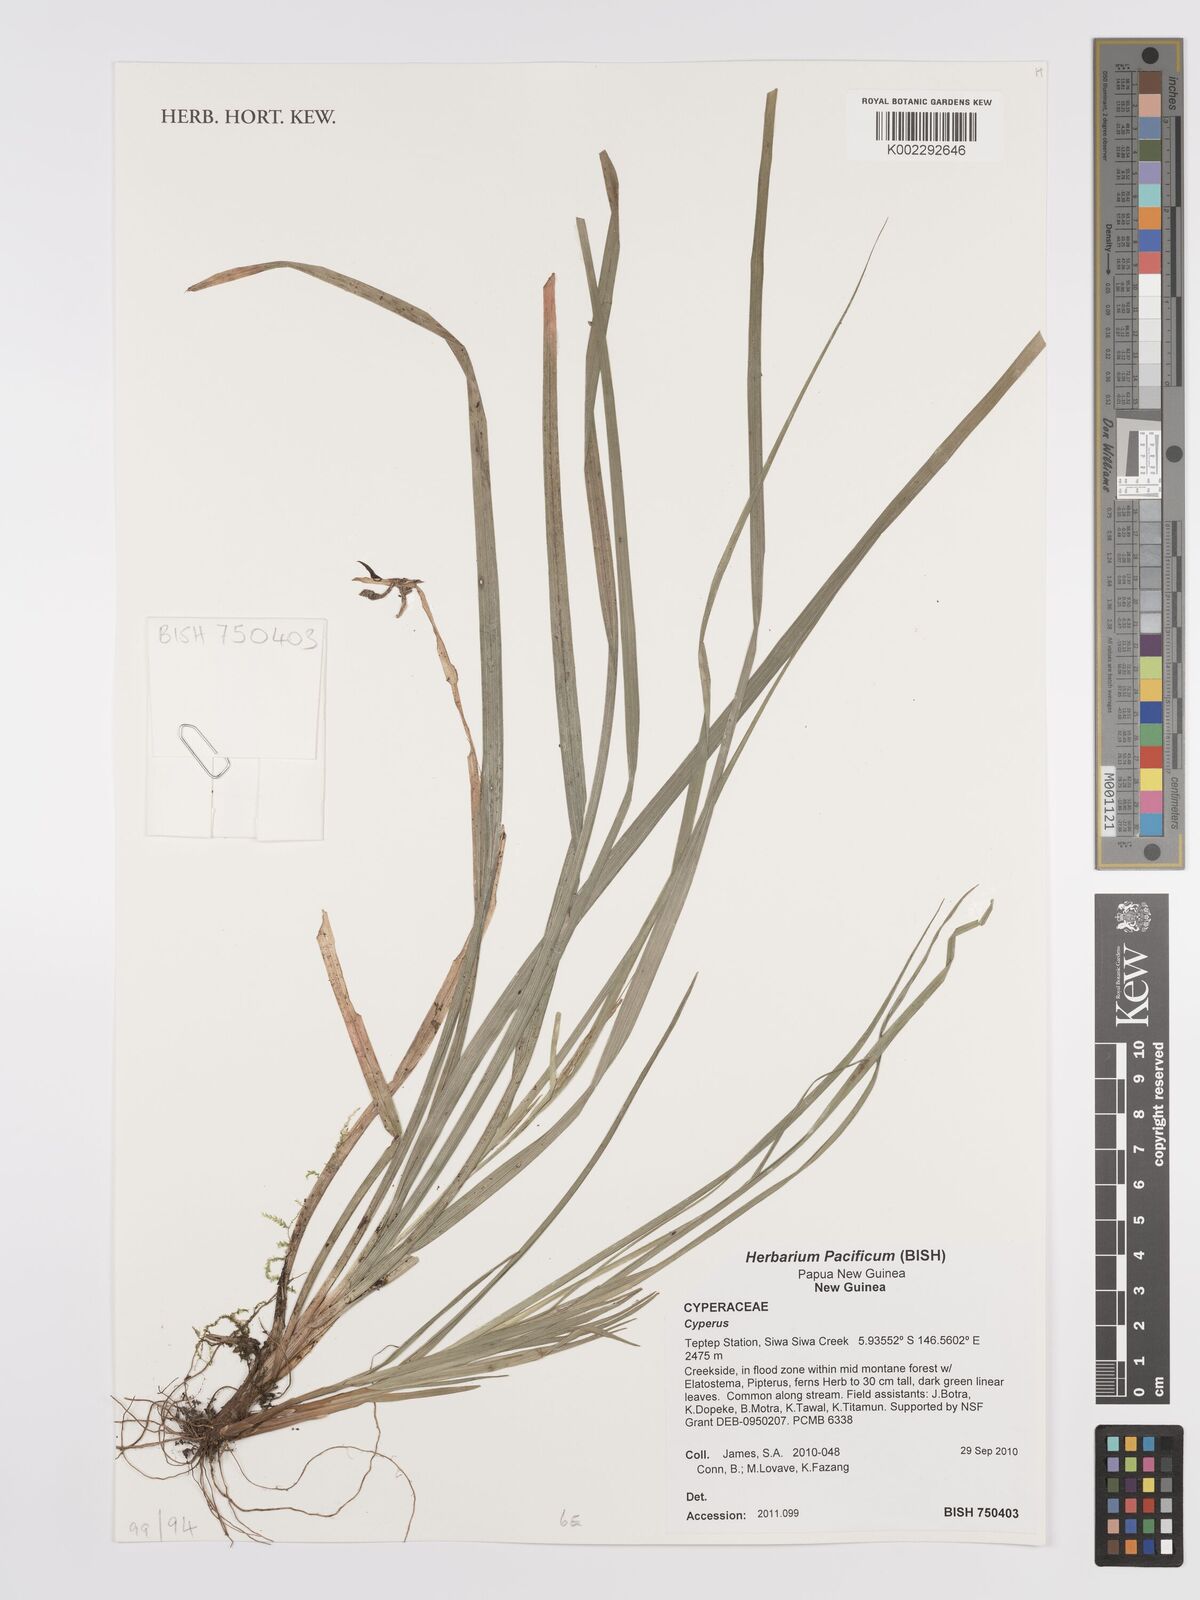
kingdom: Plantae
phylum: Tracheophyta
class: Liliopsida
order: Poales
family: Cyperaceae
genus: Cyperus
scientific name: Cyperus
